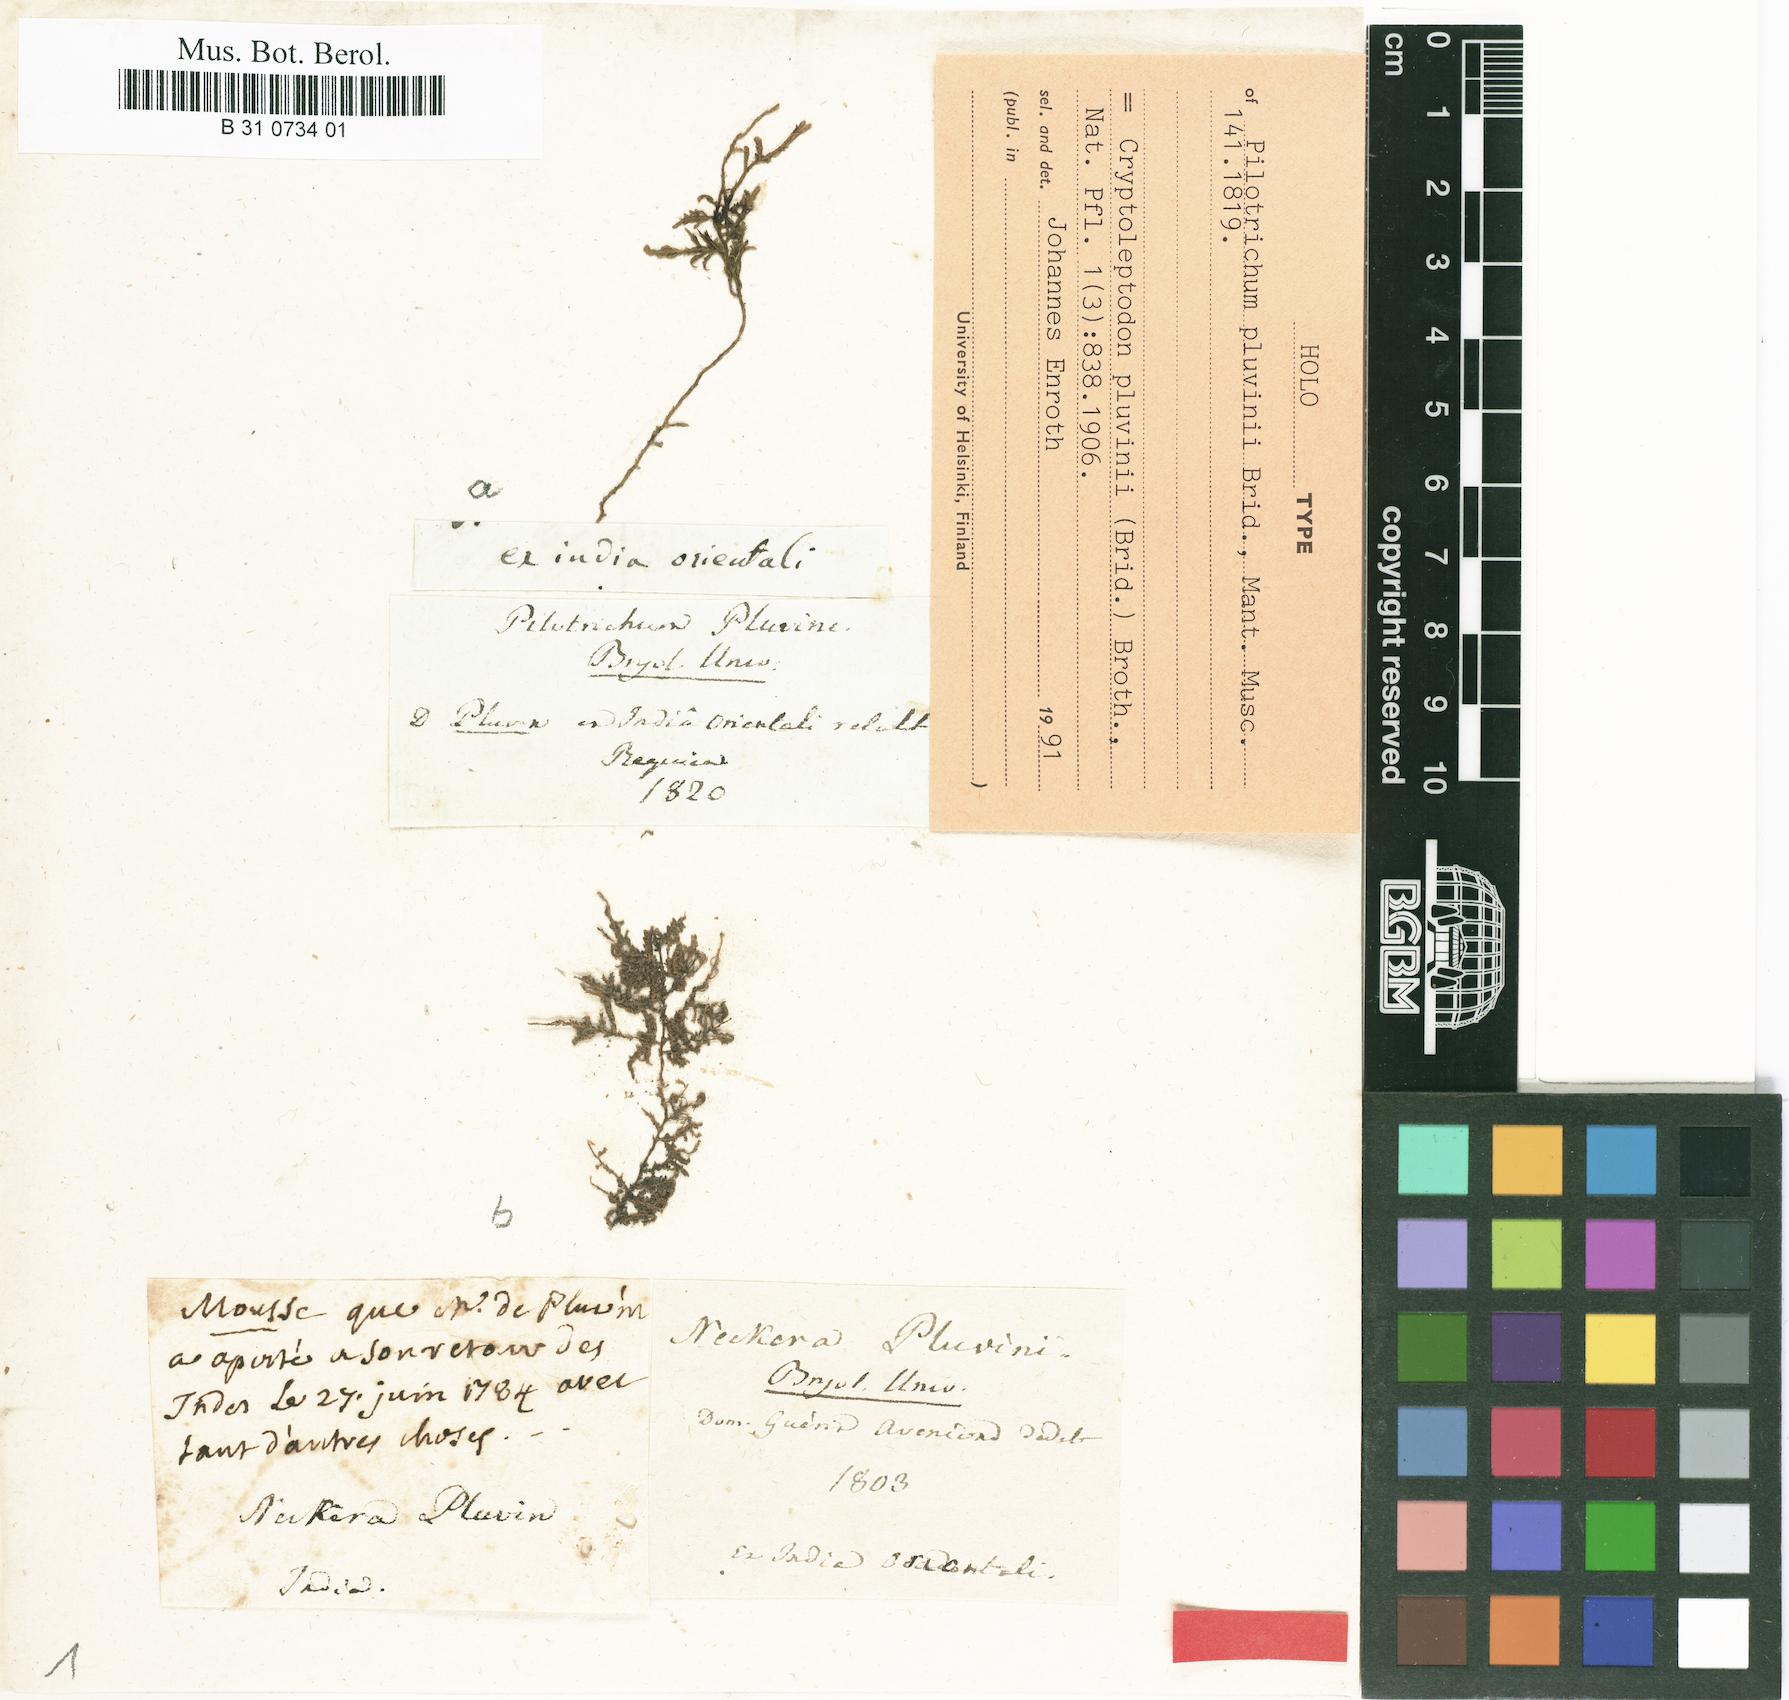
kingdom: Plantae
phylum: Bryophyta
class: Bryopsida
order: Hypnales
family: Neckeraceae
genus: Leptodon
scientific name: Leptodon pluvinii
